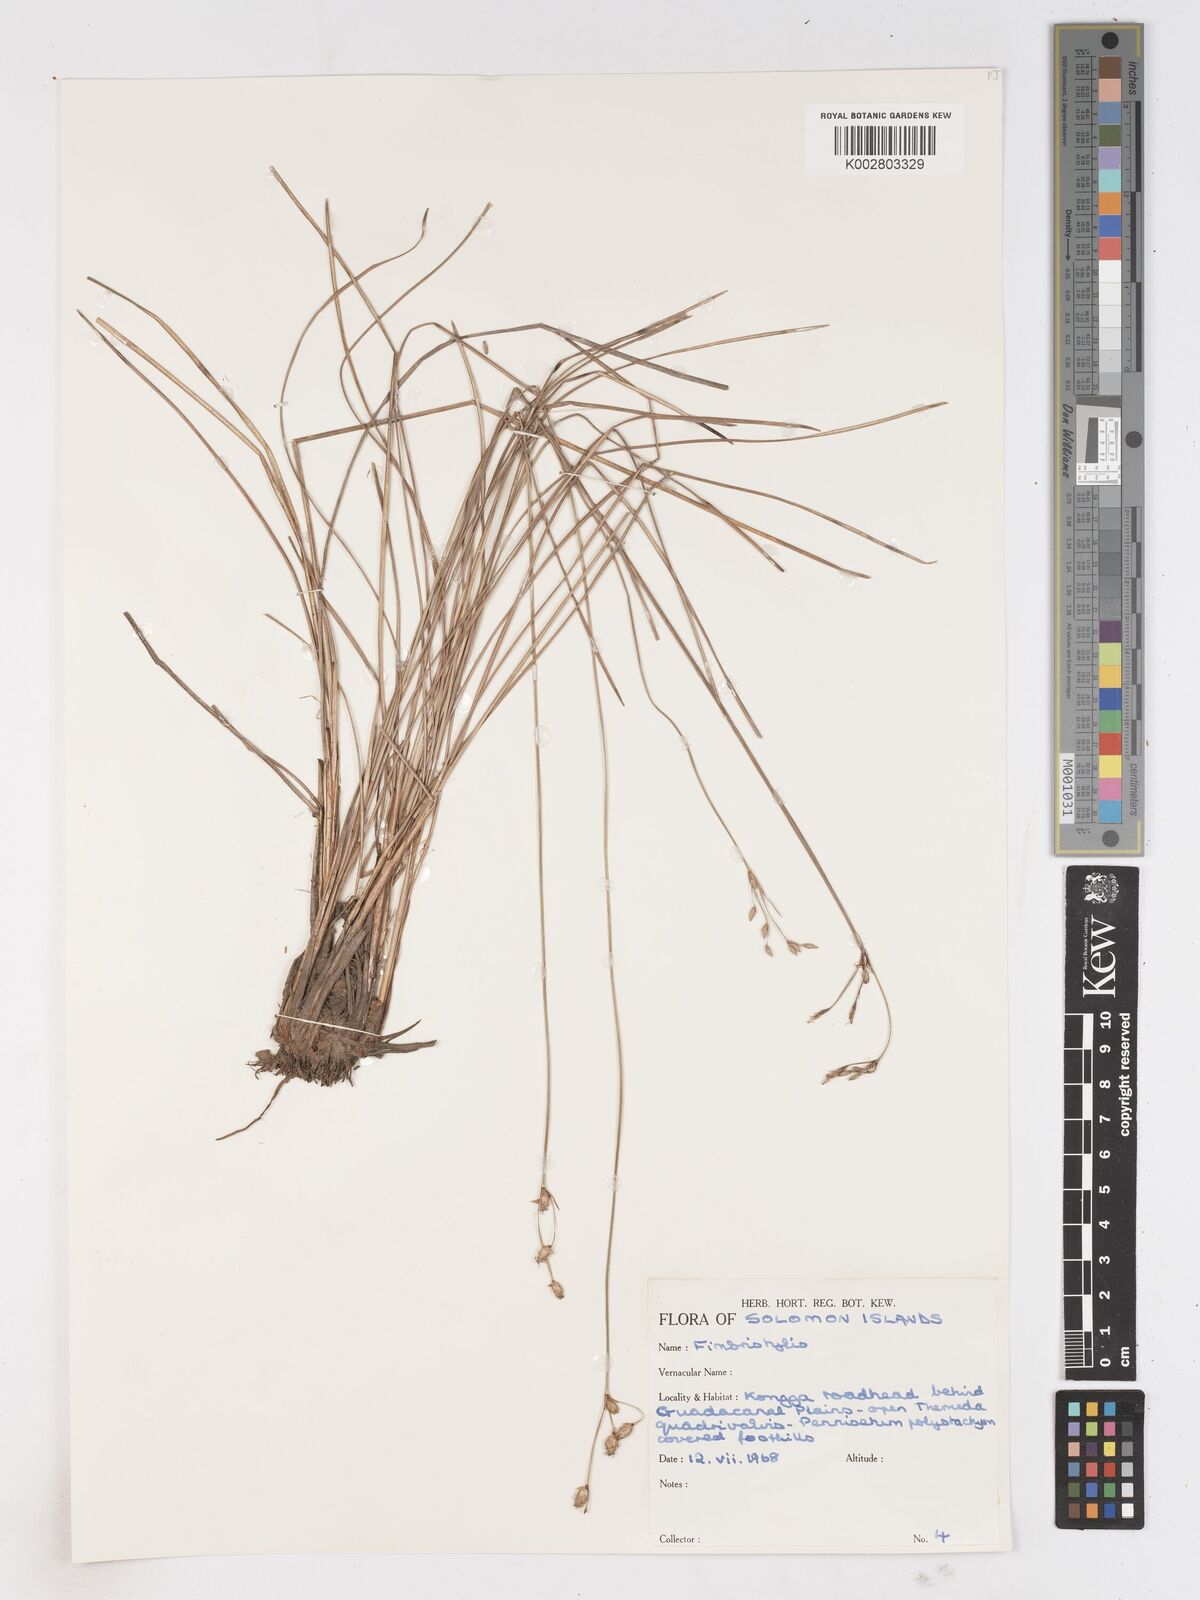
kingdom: Plantae
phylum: Tracheophyta
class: Liliopsida
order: Poales
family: Cyperaceae
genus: Fimbristylis
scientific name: Fimbristylis
